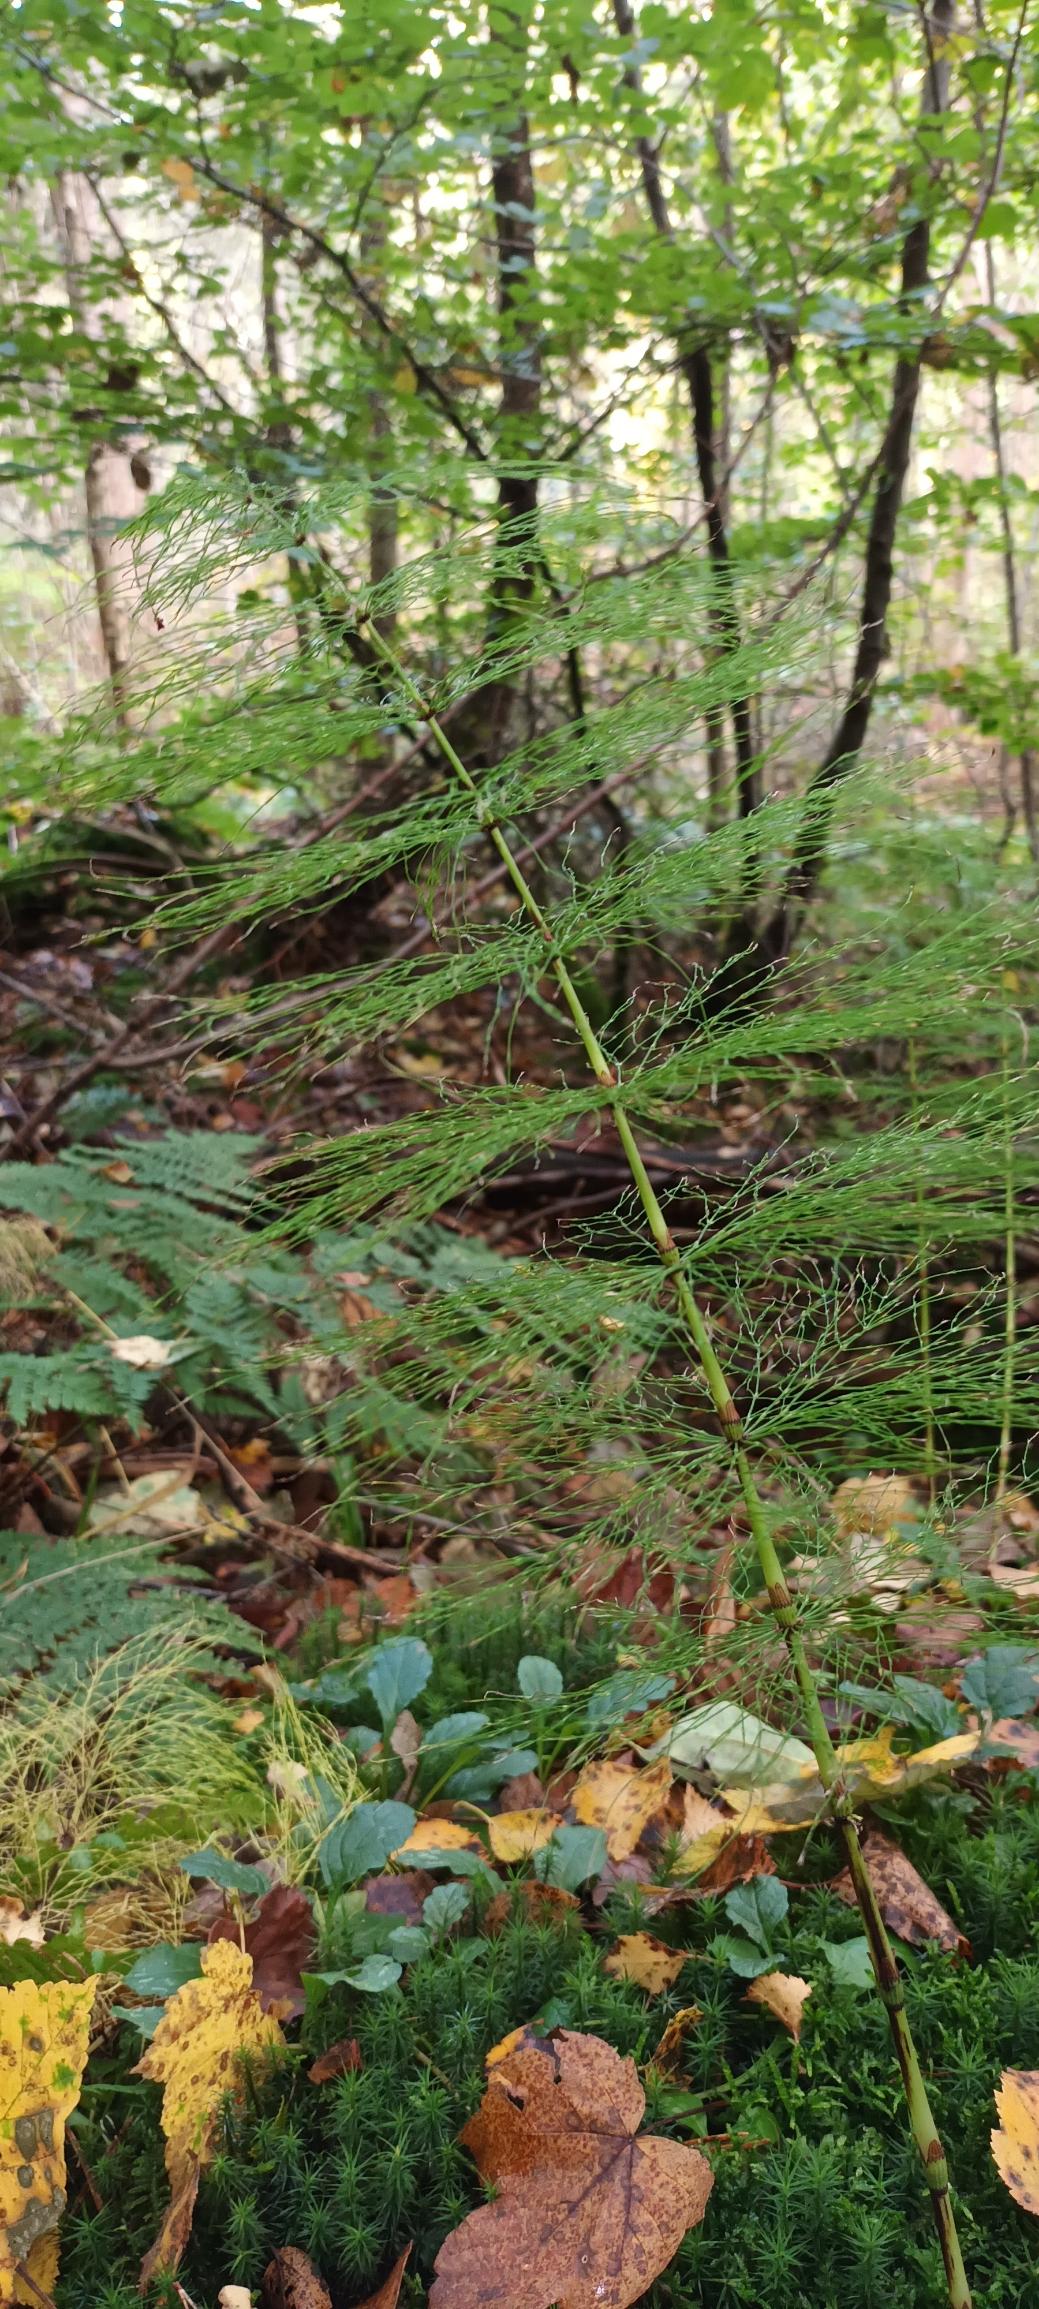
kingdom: Plantae
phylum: Tracheophyta
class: Polypodiopsida
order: Equisetales
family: Equisetaceae
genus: Equisetum
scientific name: Equisetum sylvaticum
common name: Skov-padderok
